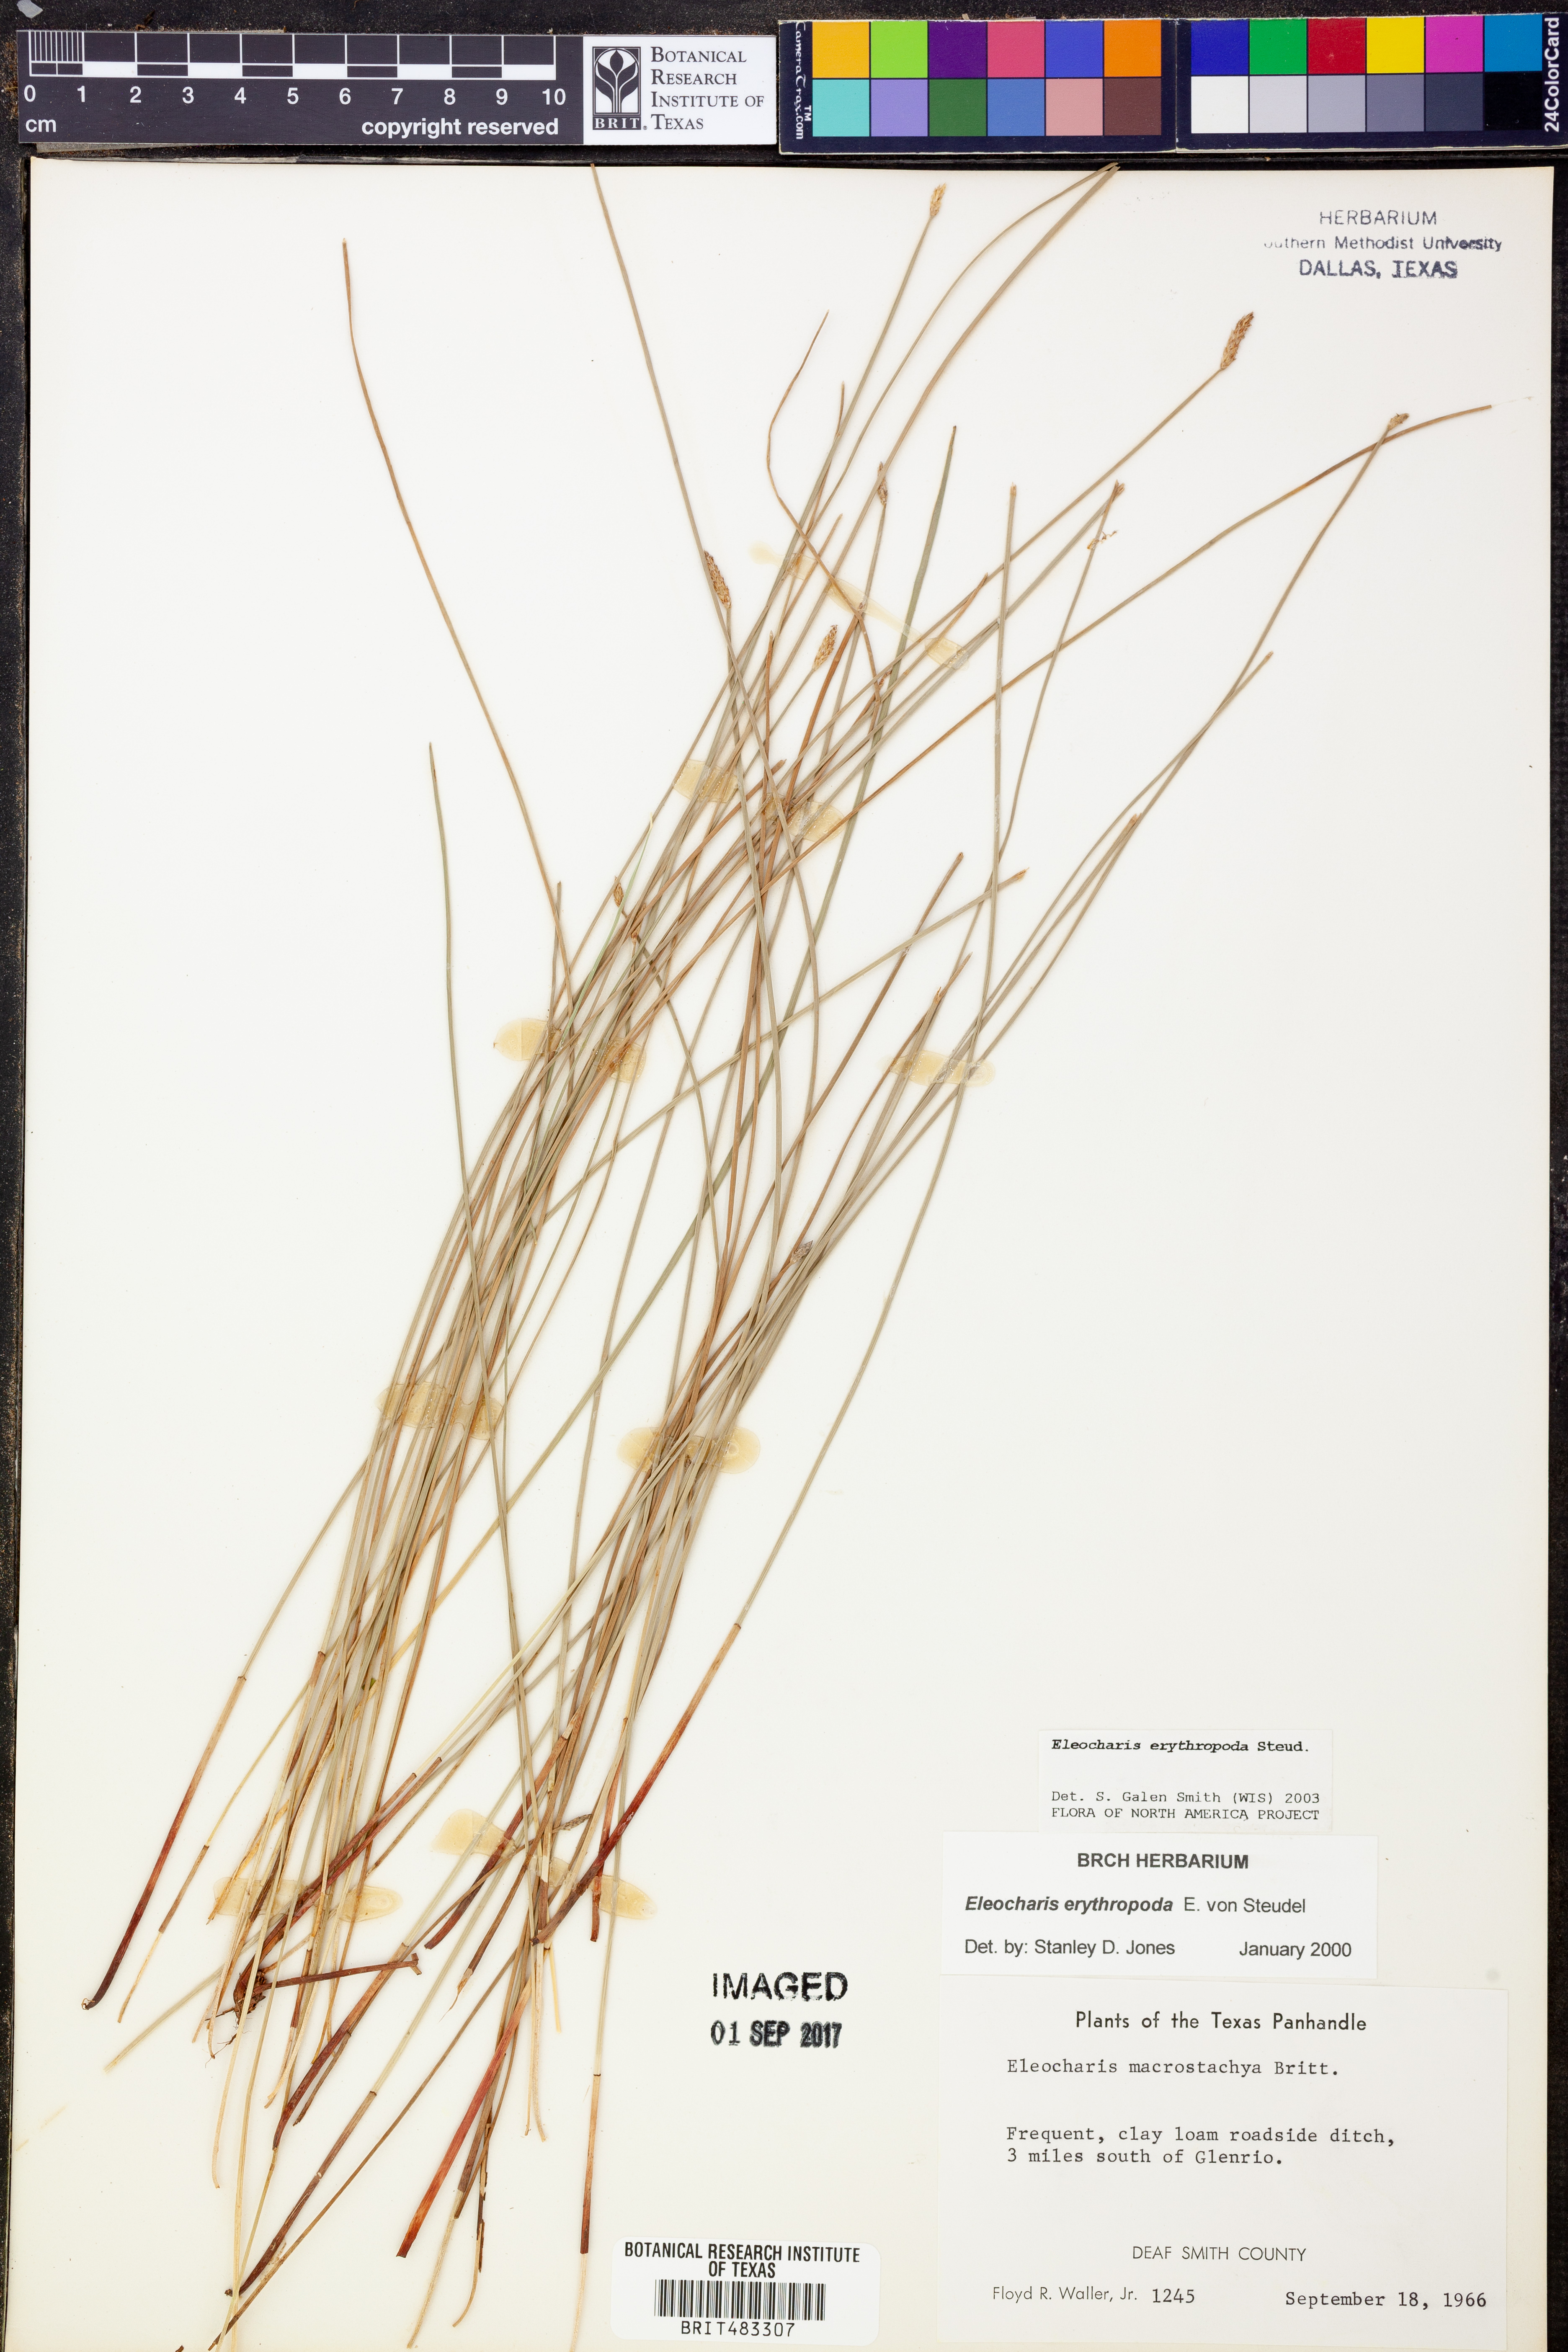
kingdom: Plantae
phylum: Tracheophyta
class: Liliopsida
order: Poales
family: Cyperaceae
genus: Eleocharis
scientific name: Eleocharis erythropoda
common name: Bald spikerush
